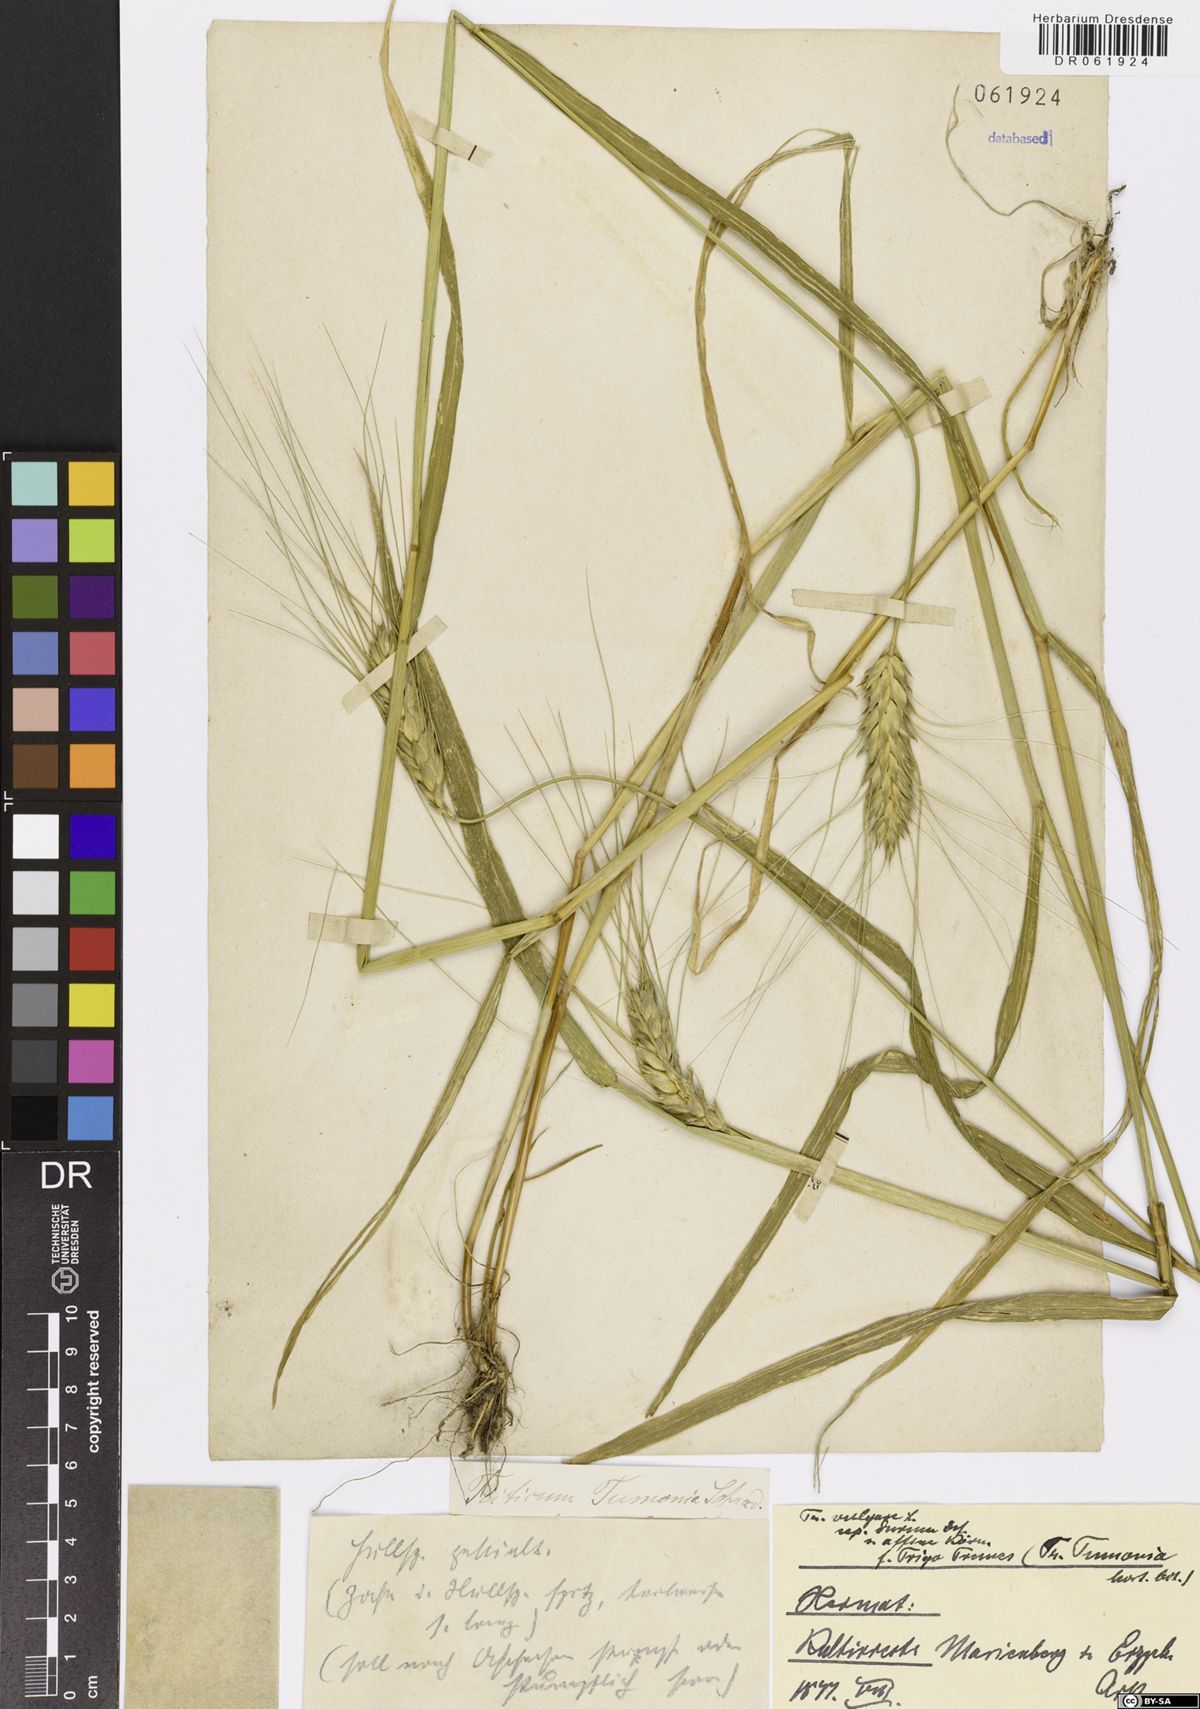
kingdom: Plantae
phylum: Tracheophyta
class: Liliopsida
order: Poales
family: Poaceae
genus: Triticum
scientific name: Triticum
